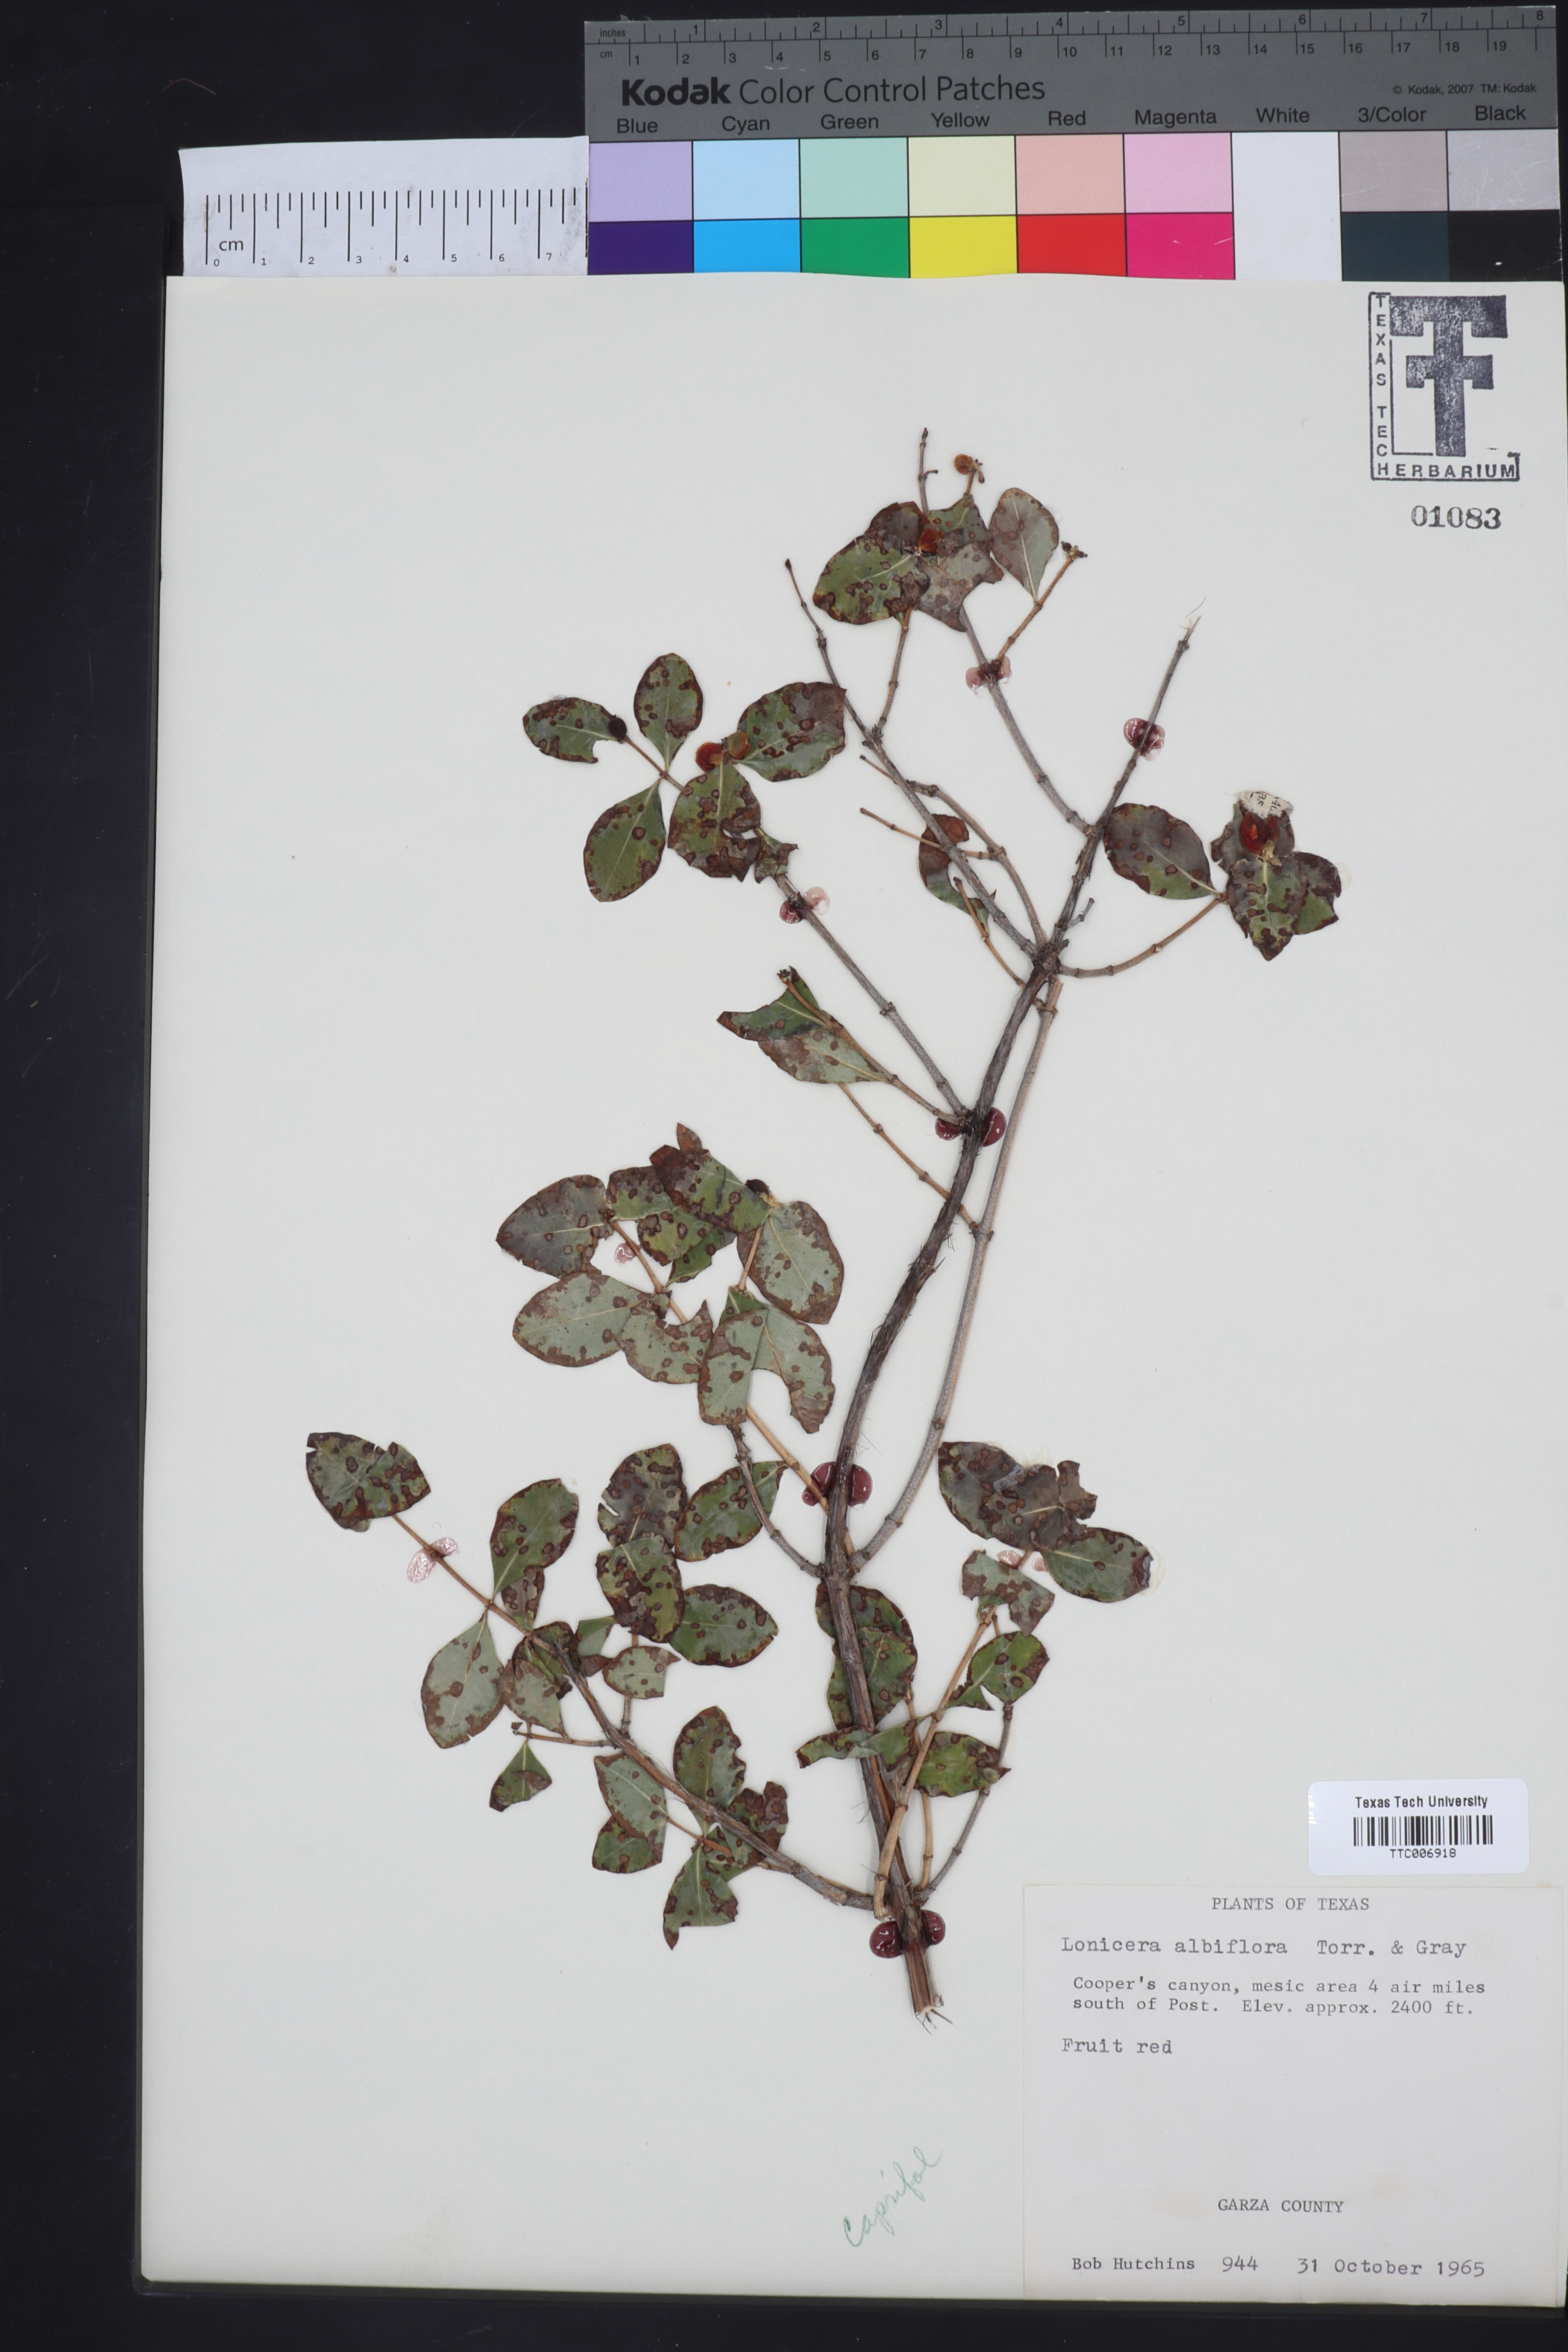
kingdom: Plantae
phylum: Tracheophyta
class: Magnoliopsida
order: Dipsacales
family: Caprifoliaceae
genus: Lonicera
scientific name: Lonicera albiflora
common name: White honeysuckle
